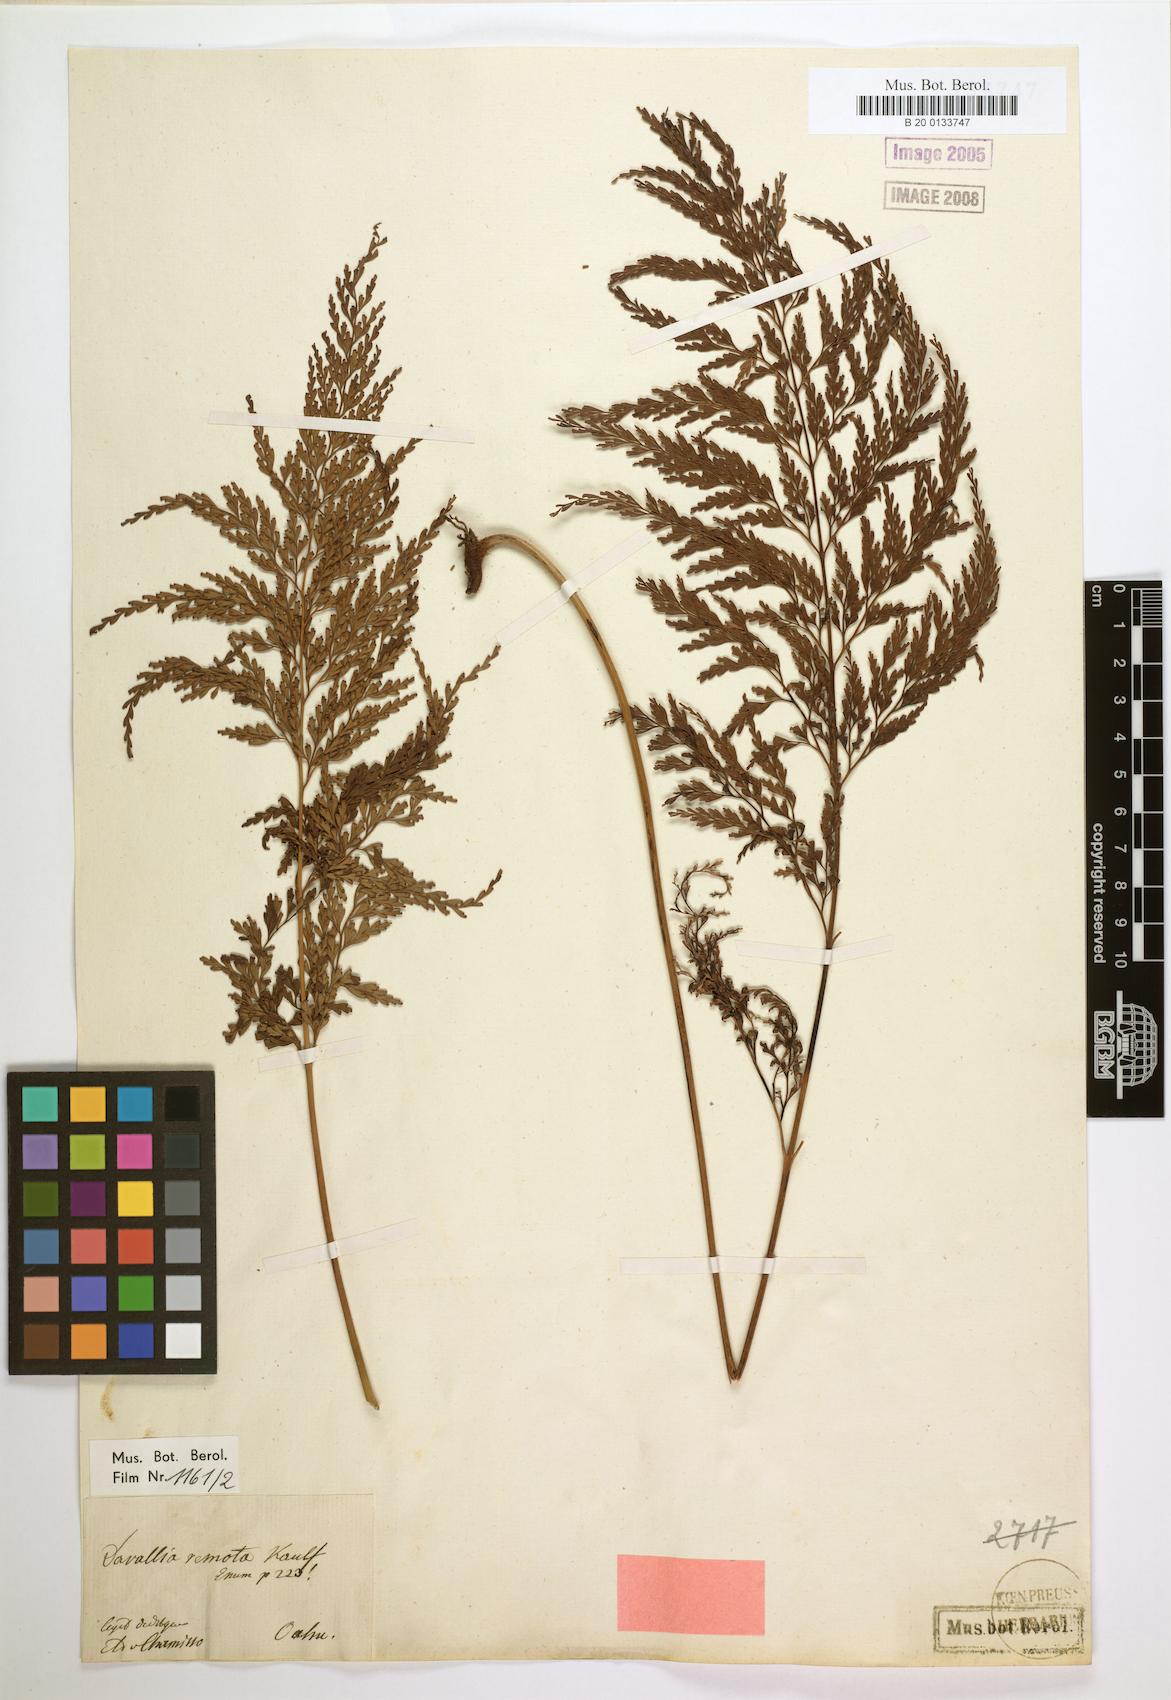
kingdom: Plantae
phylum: Tracheophyta
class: Polypodiopsida
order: Polypodiales
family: Lindsaeaceae
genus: Odontosoria
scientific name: Odontosoria chinensis
